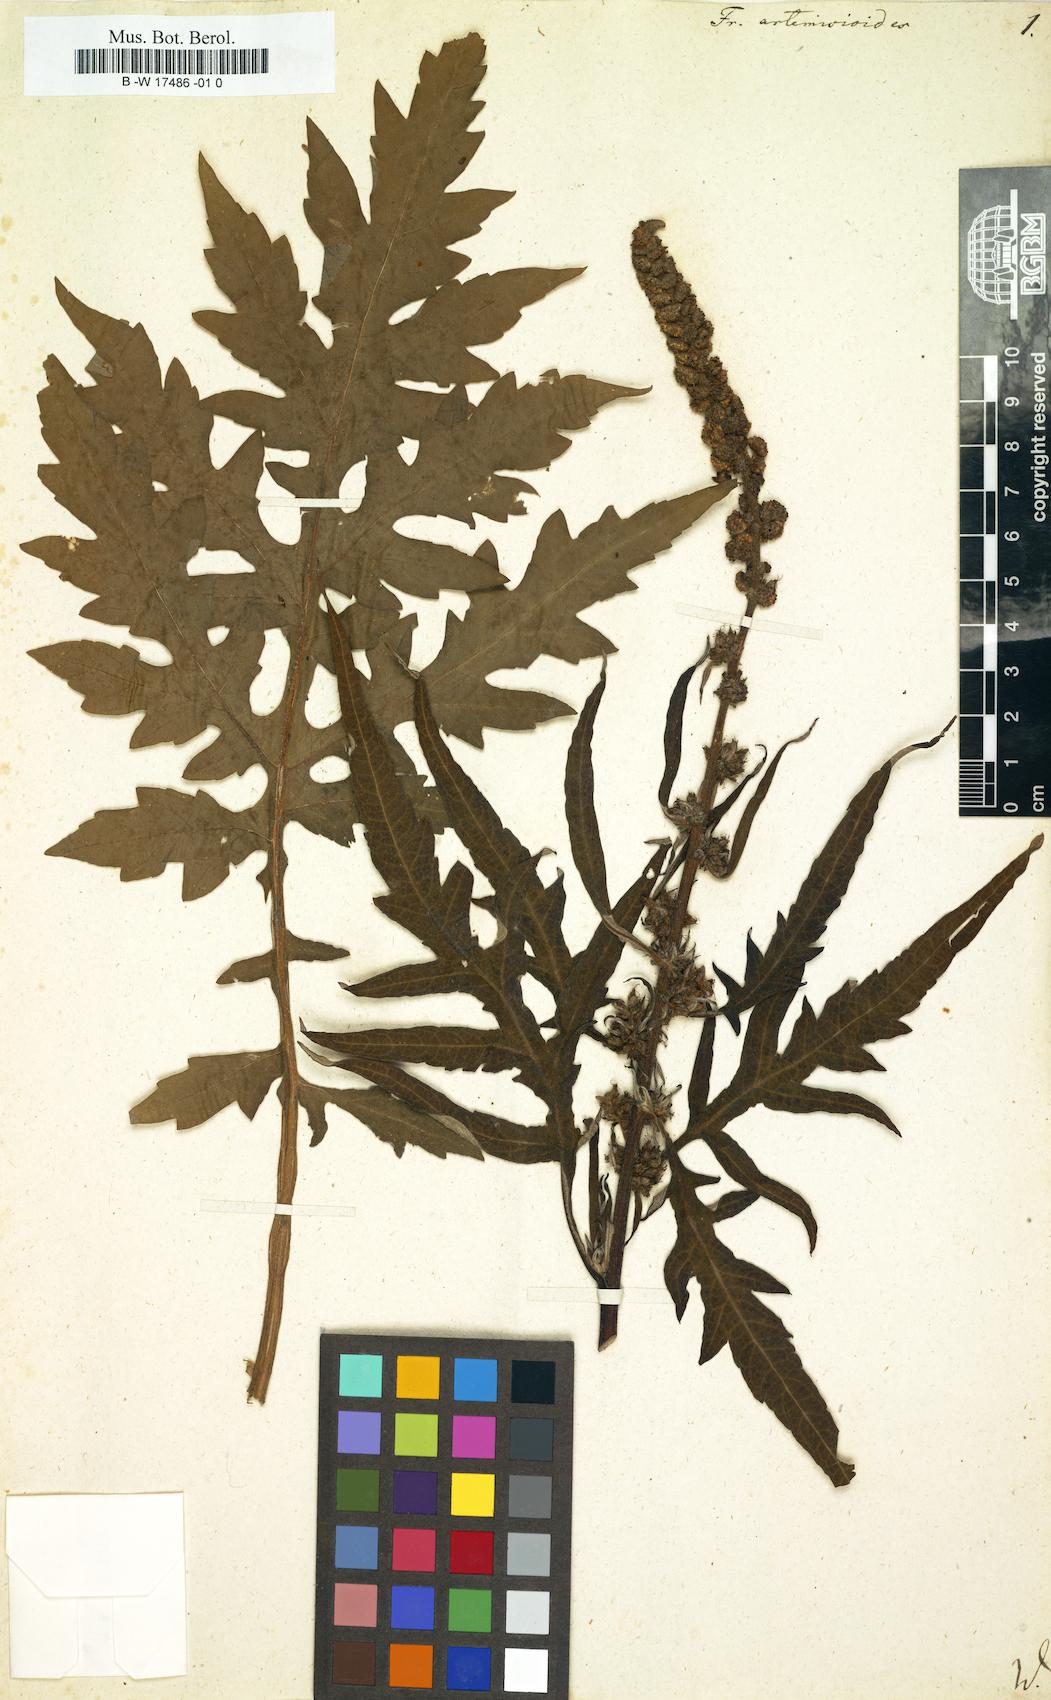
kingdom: Plantae
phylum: Tracheophyta
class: Magnoliopsida
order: Asterales
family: Asteraceae
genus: Ambrosia
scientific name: Ambrosia arborescens
